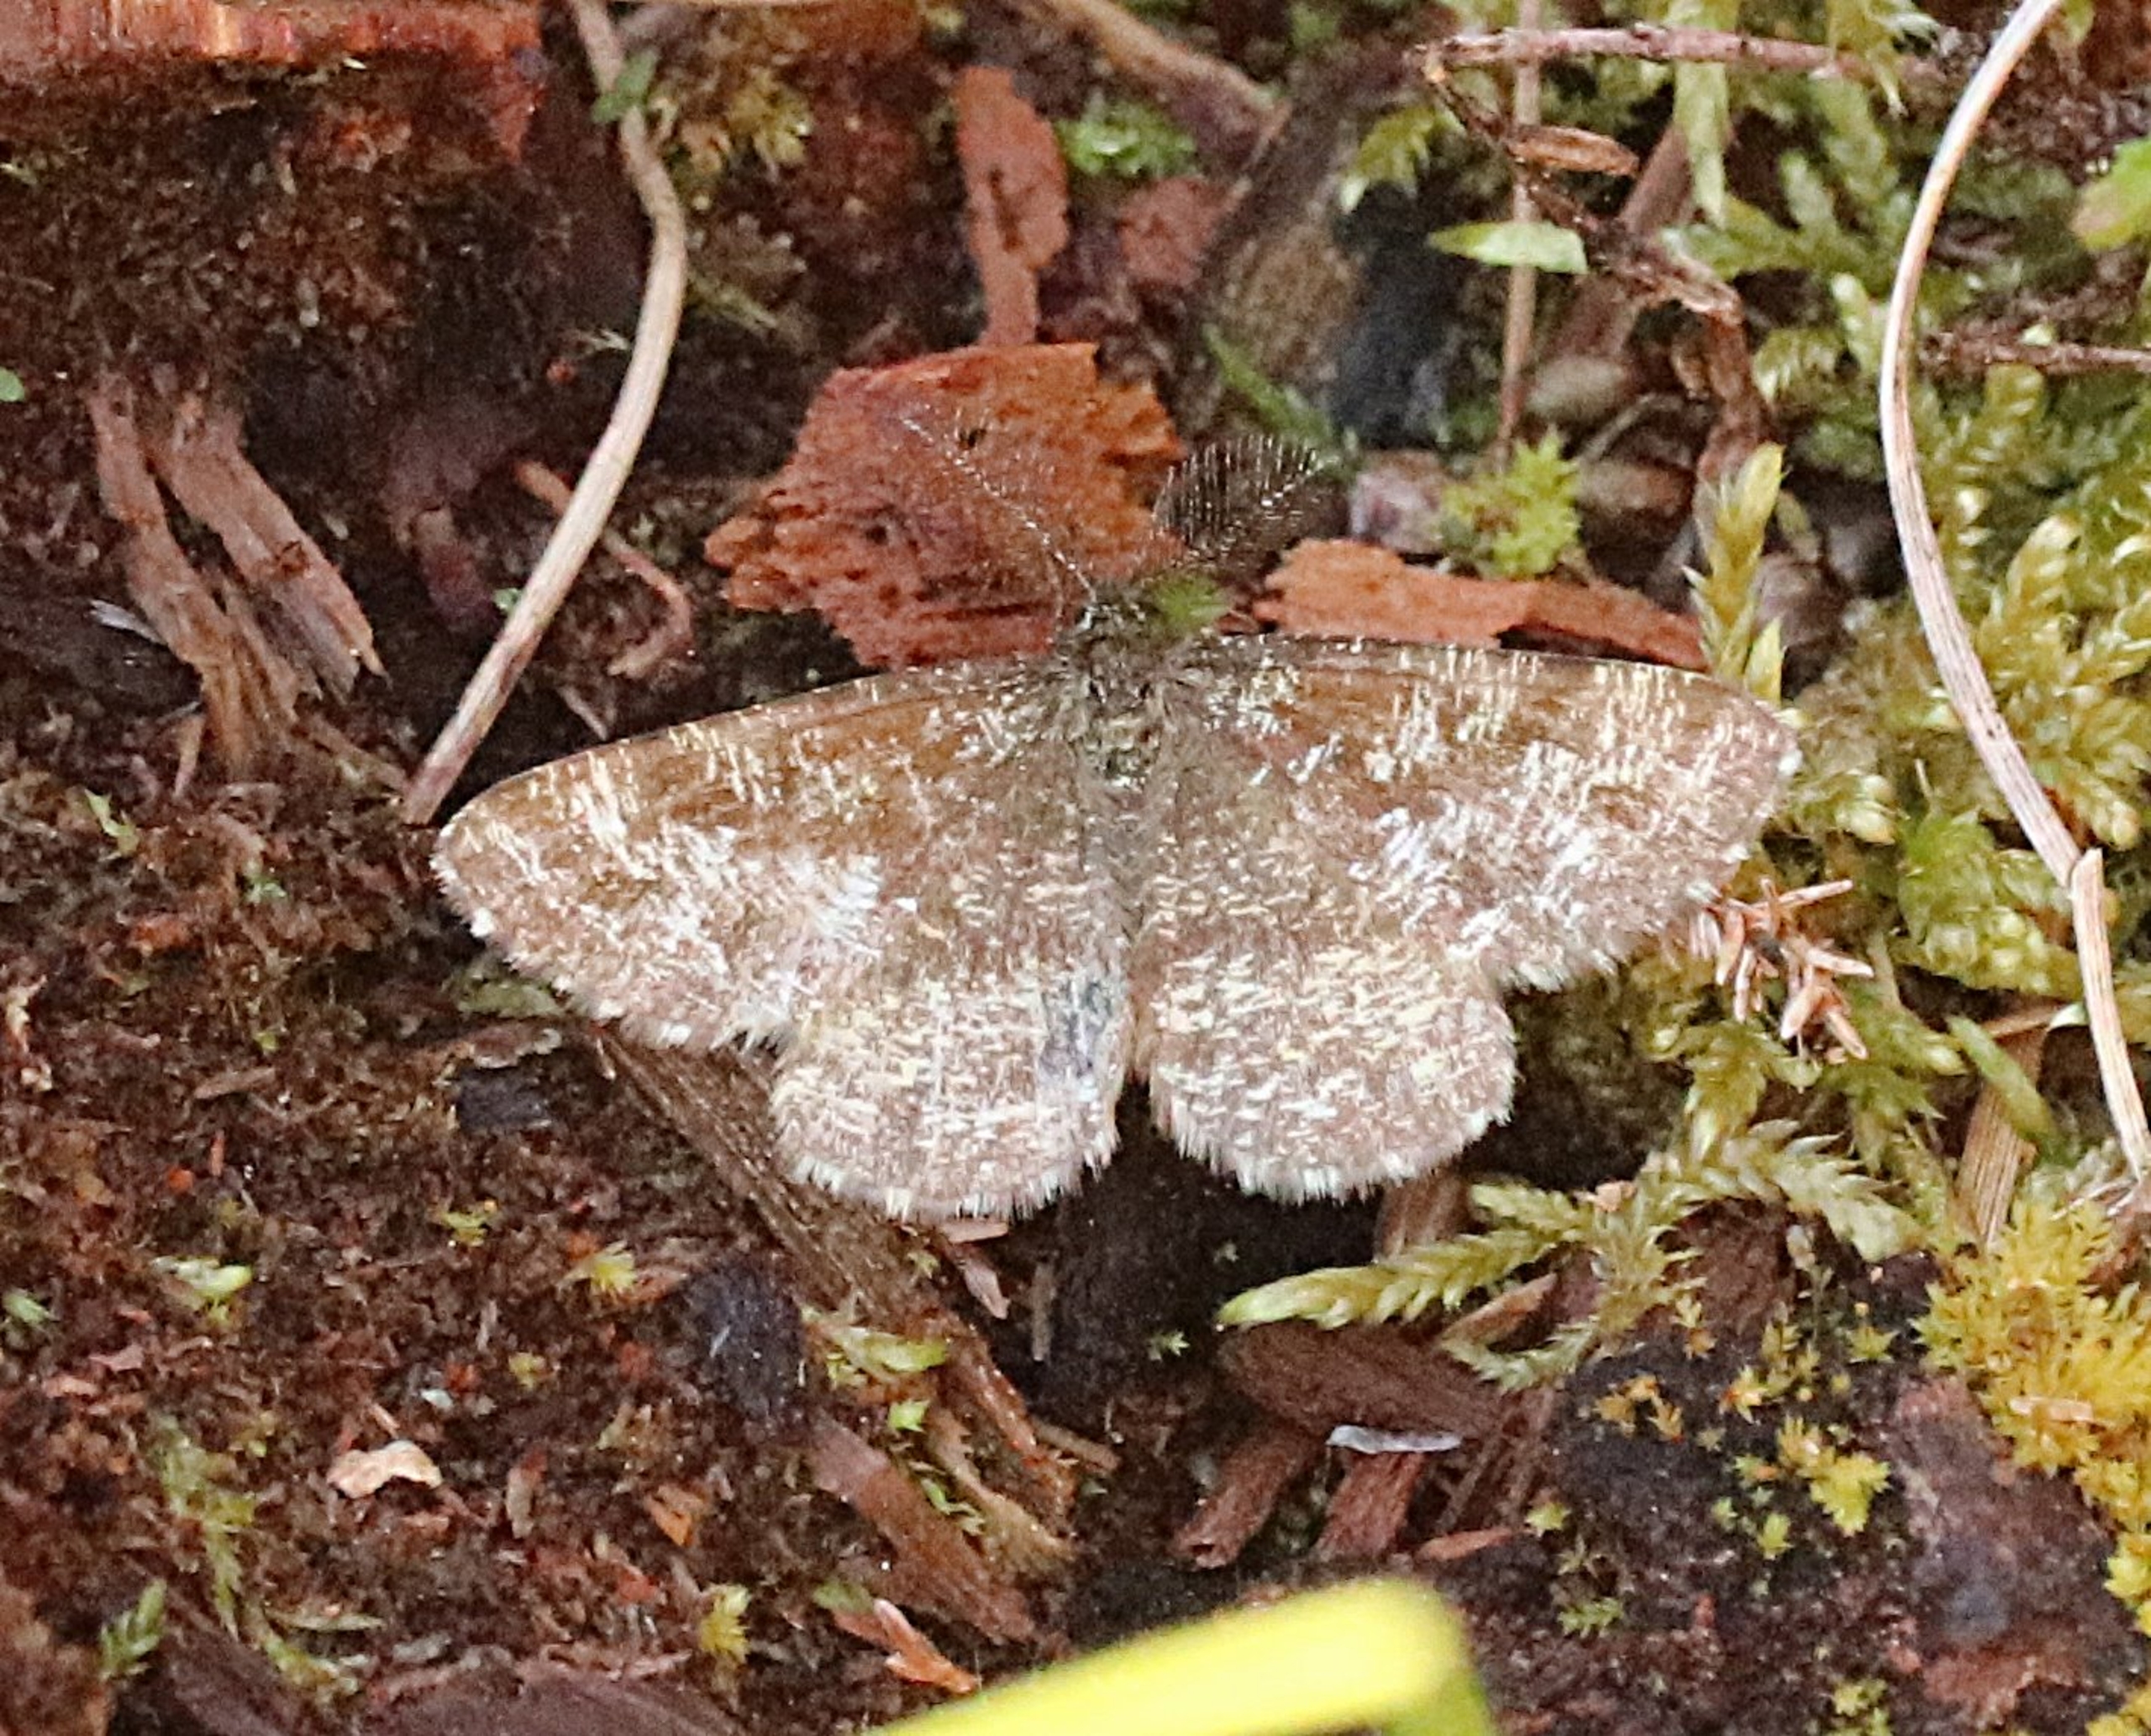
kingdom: Animalia
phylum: Arthropoda
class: Insecta
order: Lepidoptera
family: Geometridae
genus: Ematurga
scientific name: Ematurga atomaria
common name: Lyngmåler
